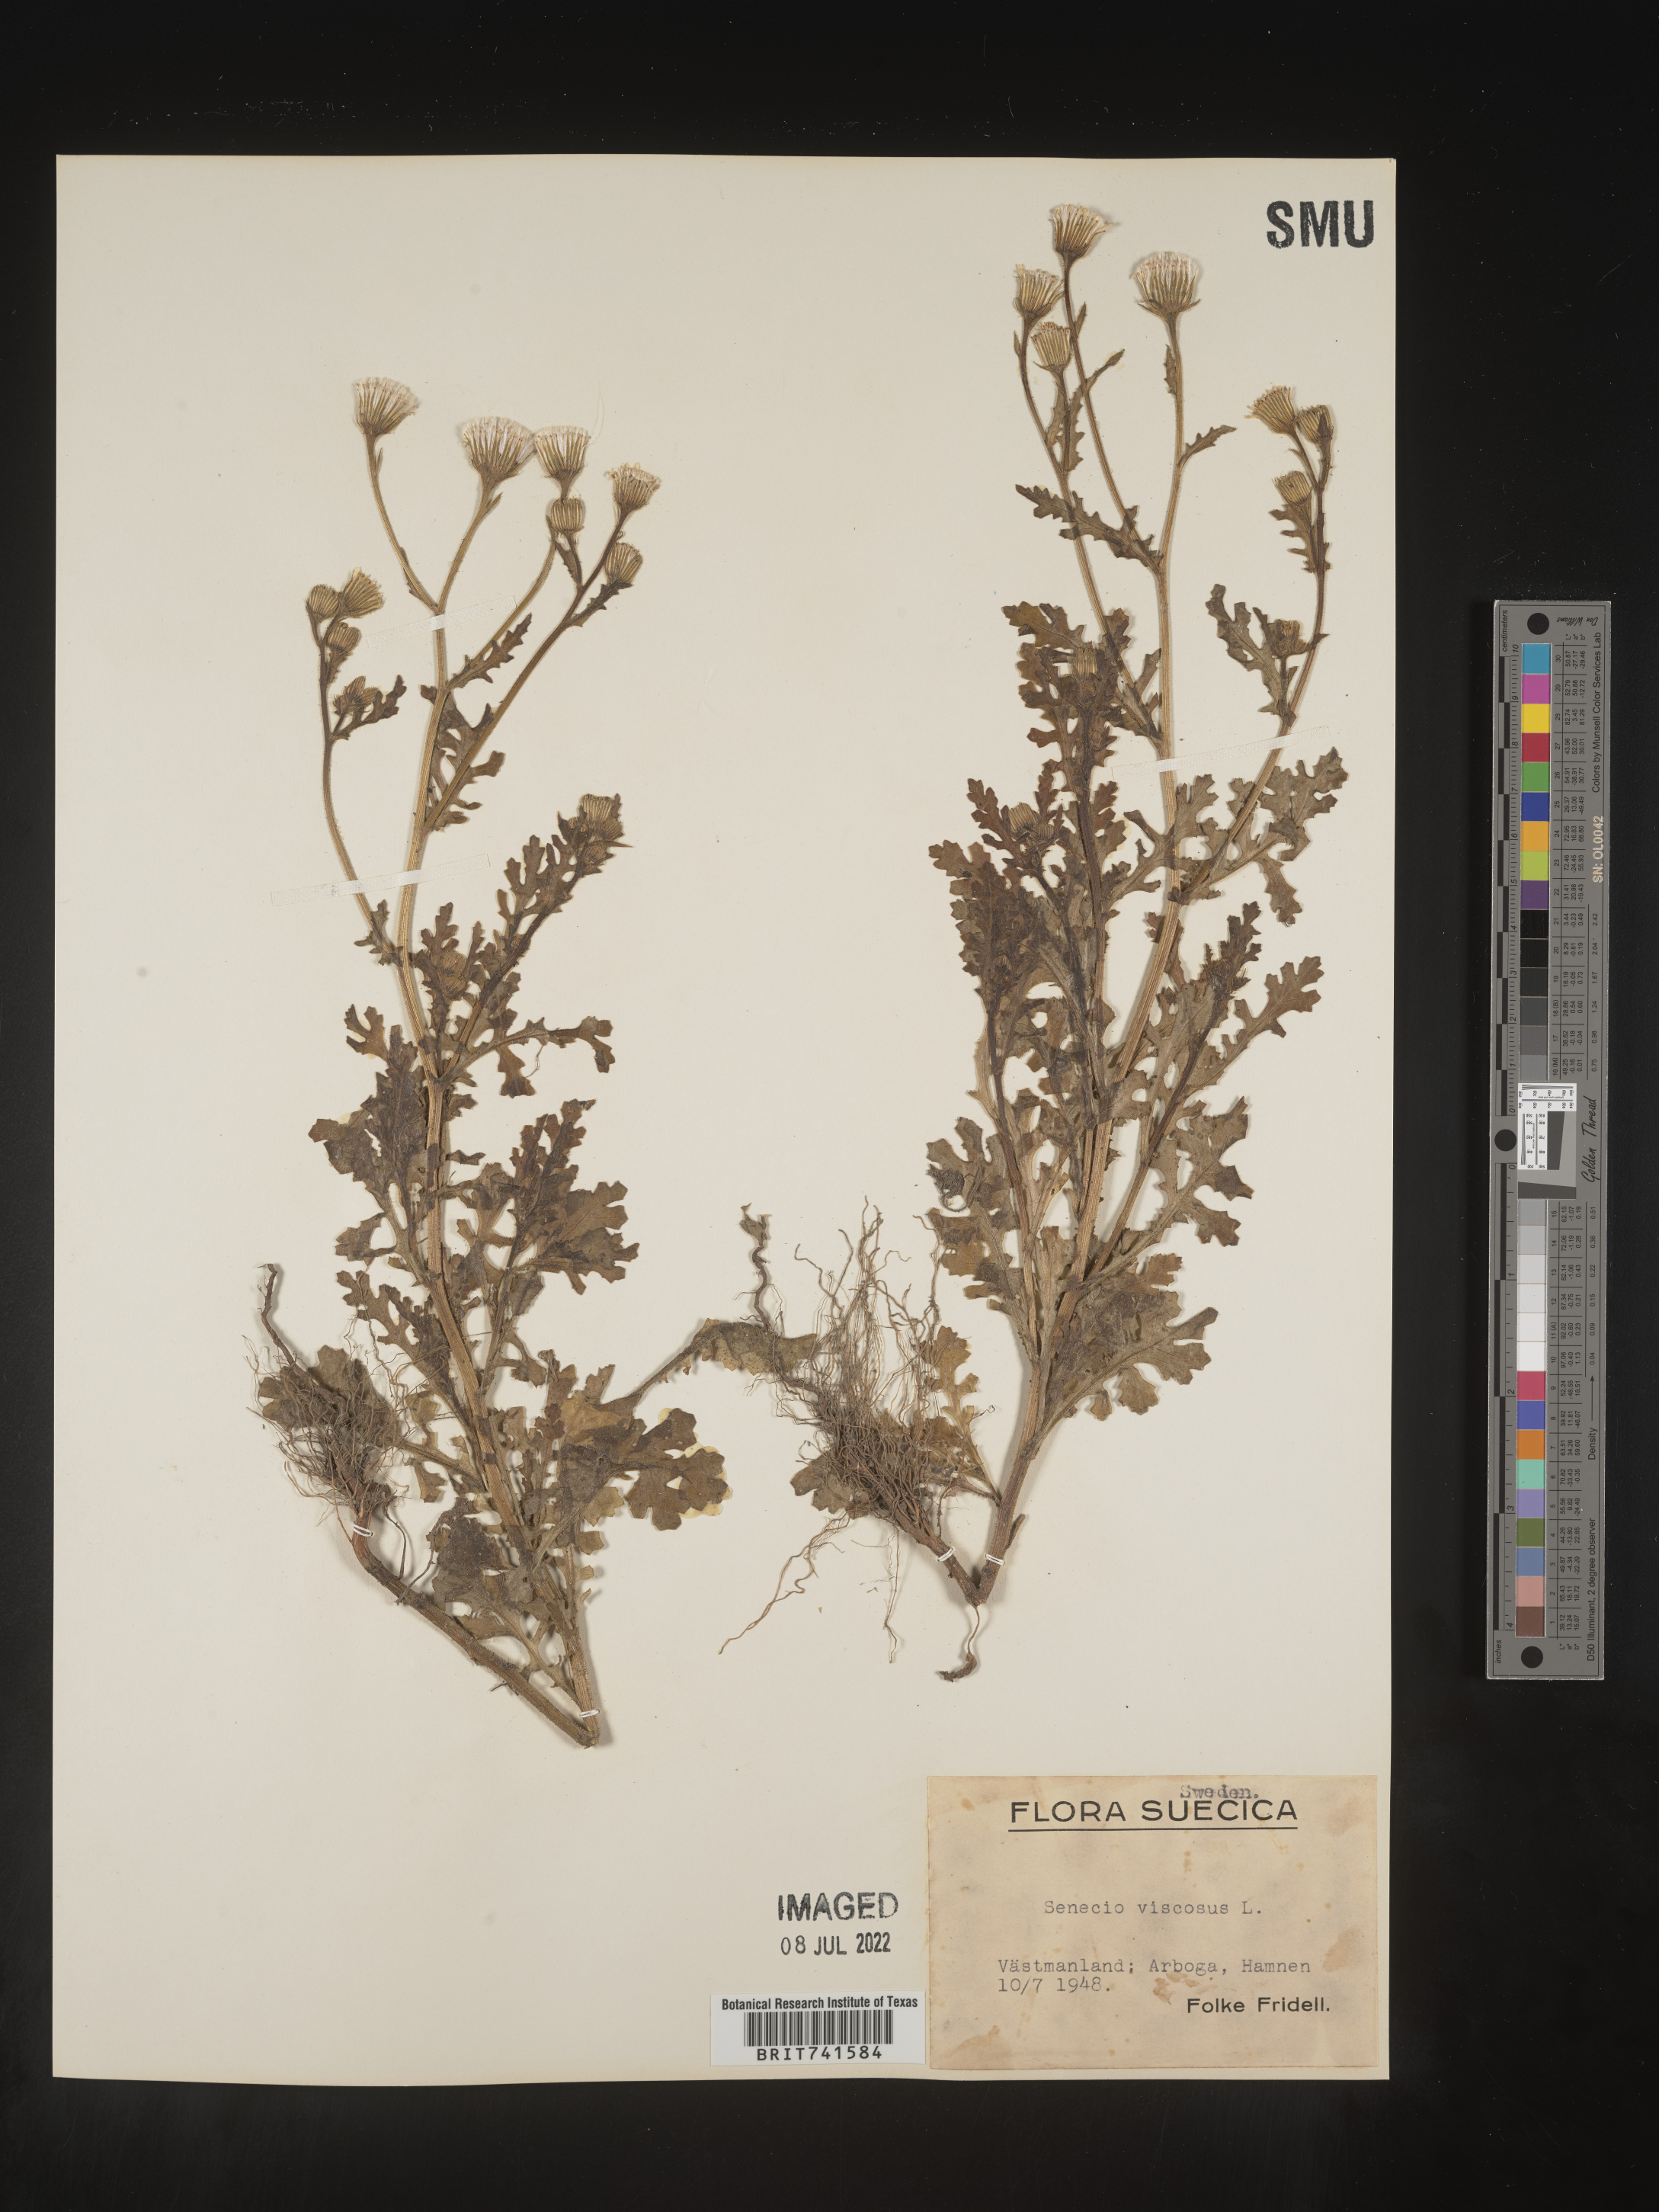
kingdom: Plantae
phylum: Tracheophyta
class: Magnoliopsida
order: Asterales
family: Asteraceae
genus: Senecio
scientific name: Senecio
